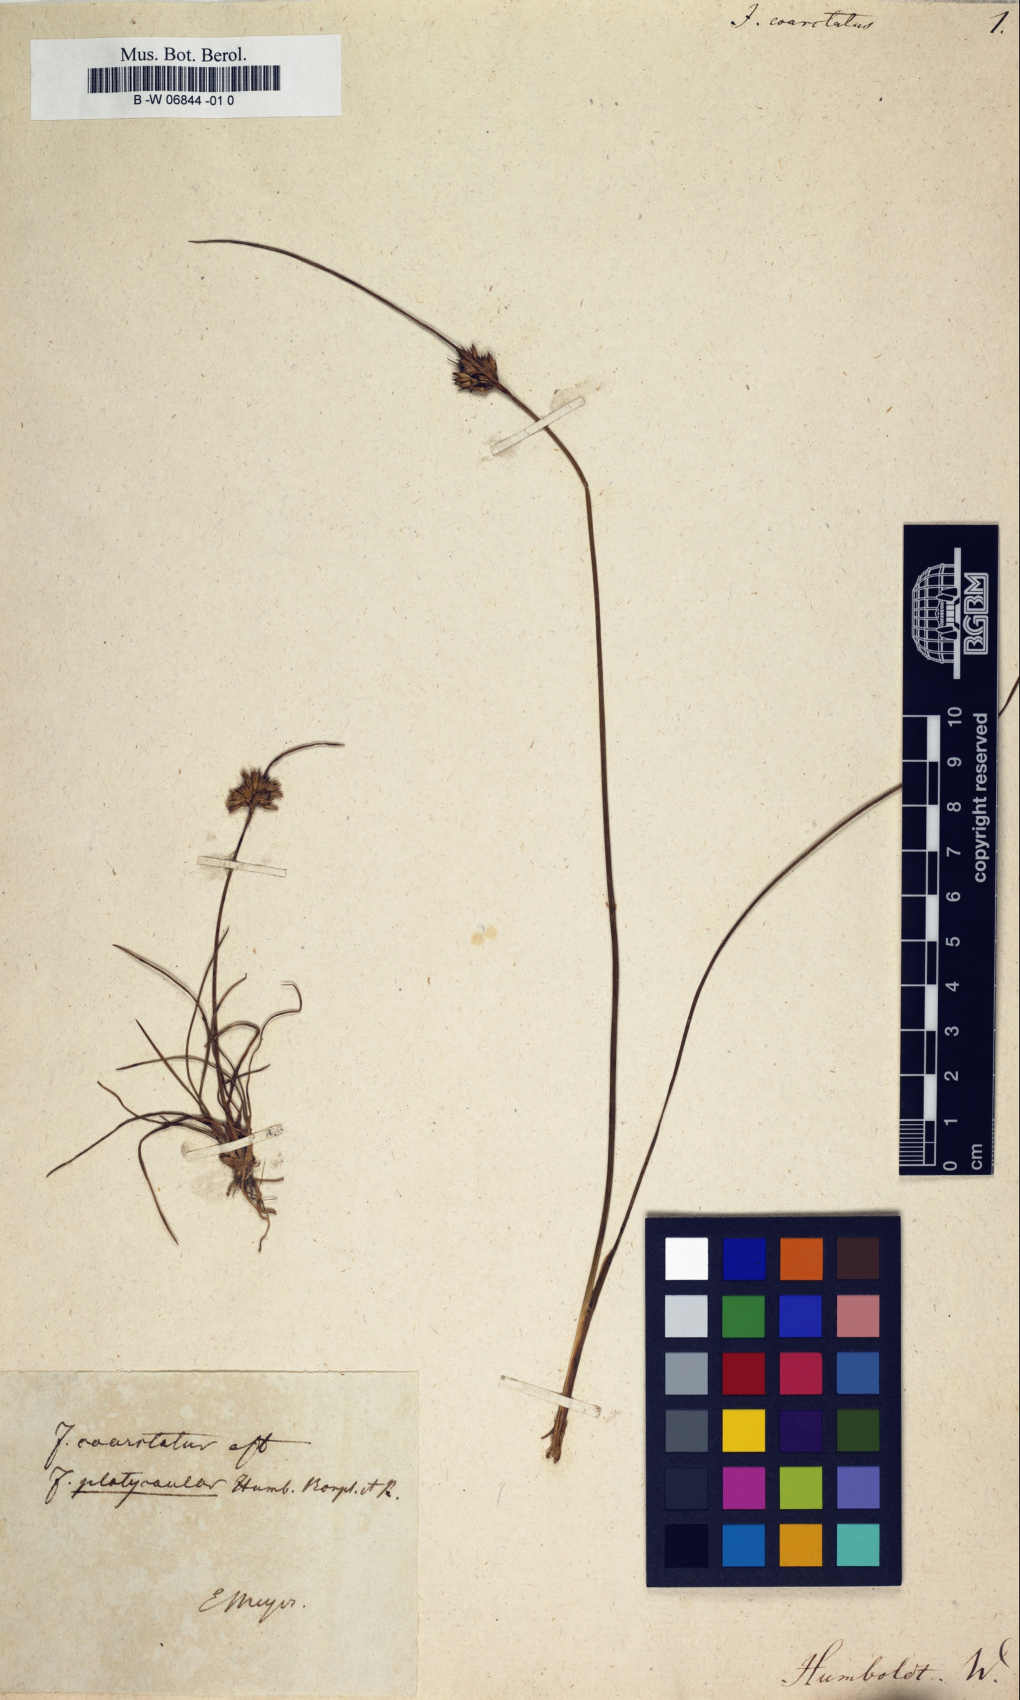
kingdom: Plantae
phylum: Tracheophyta
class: Liliopsida
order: Poales
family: Juncaceae
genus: Juncus
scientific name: Juncus brevicaudatus
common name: Narrow-panicle rush
